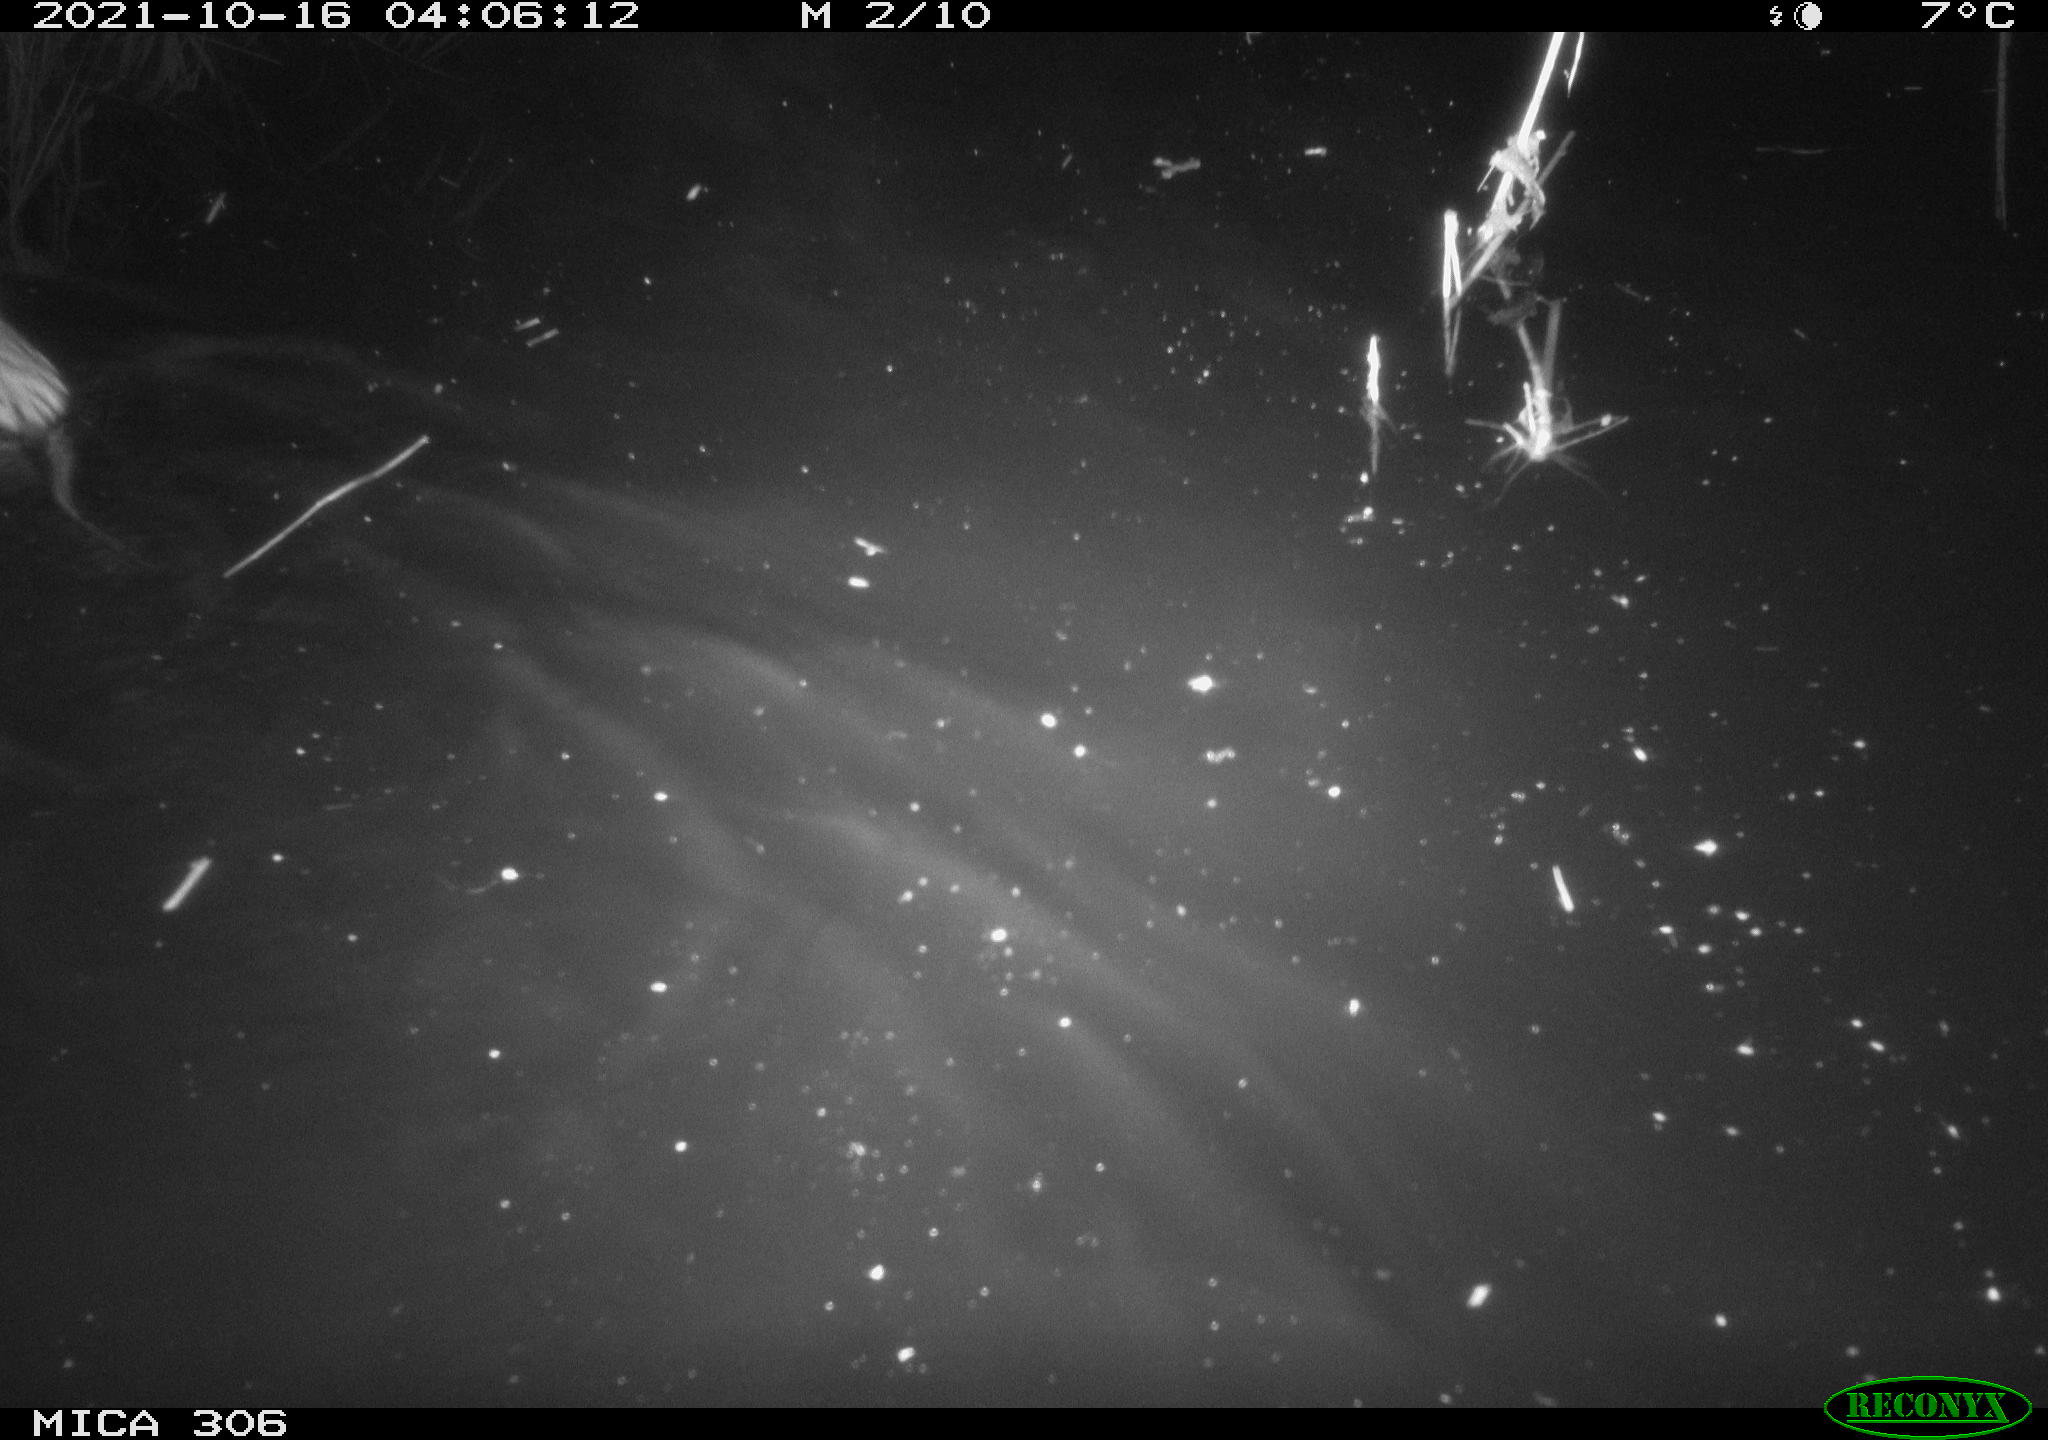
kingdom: Animalia
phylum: Chordata
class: Mammalia
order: Rodentia
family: Cricetidae
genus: Ondatra
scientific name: Ondatra zibethicus
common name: Muskrat
